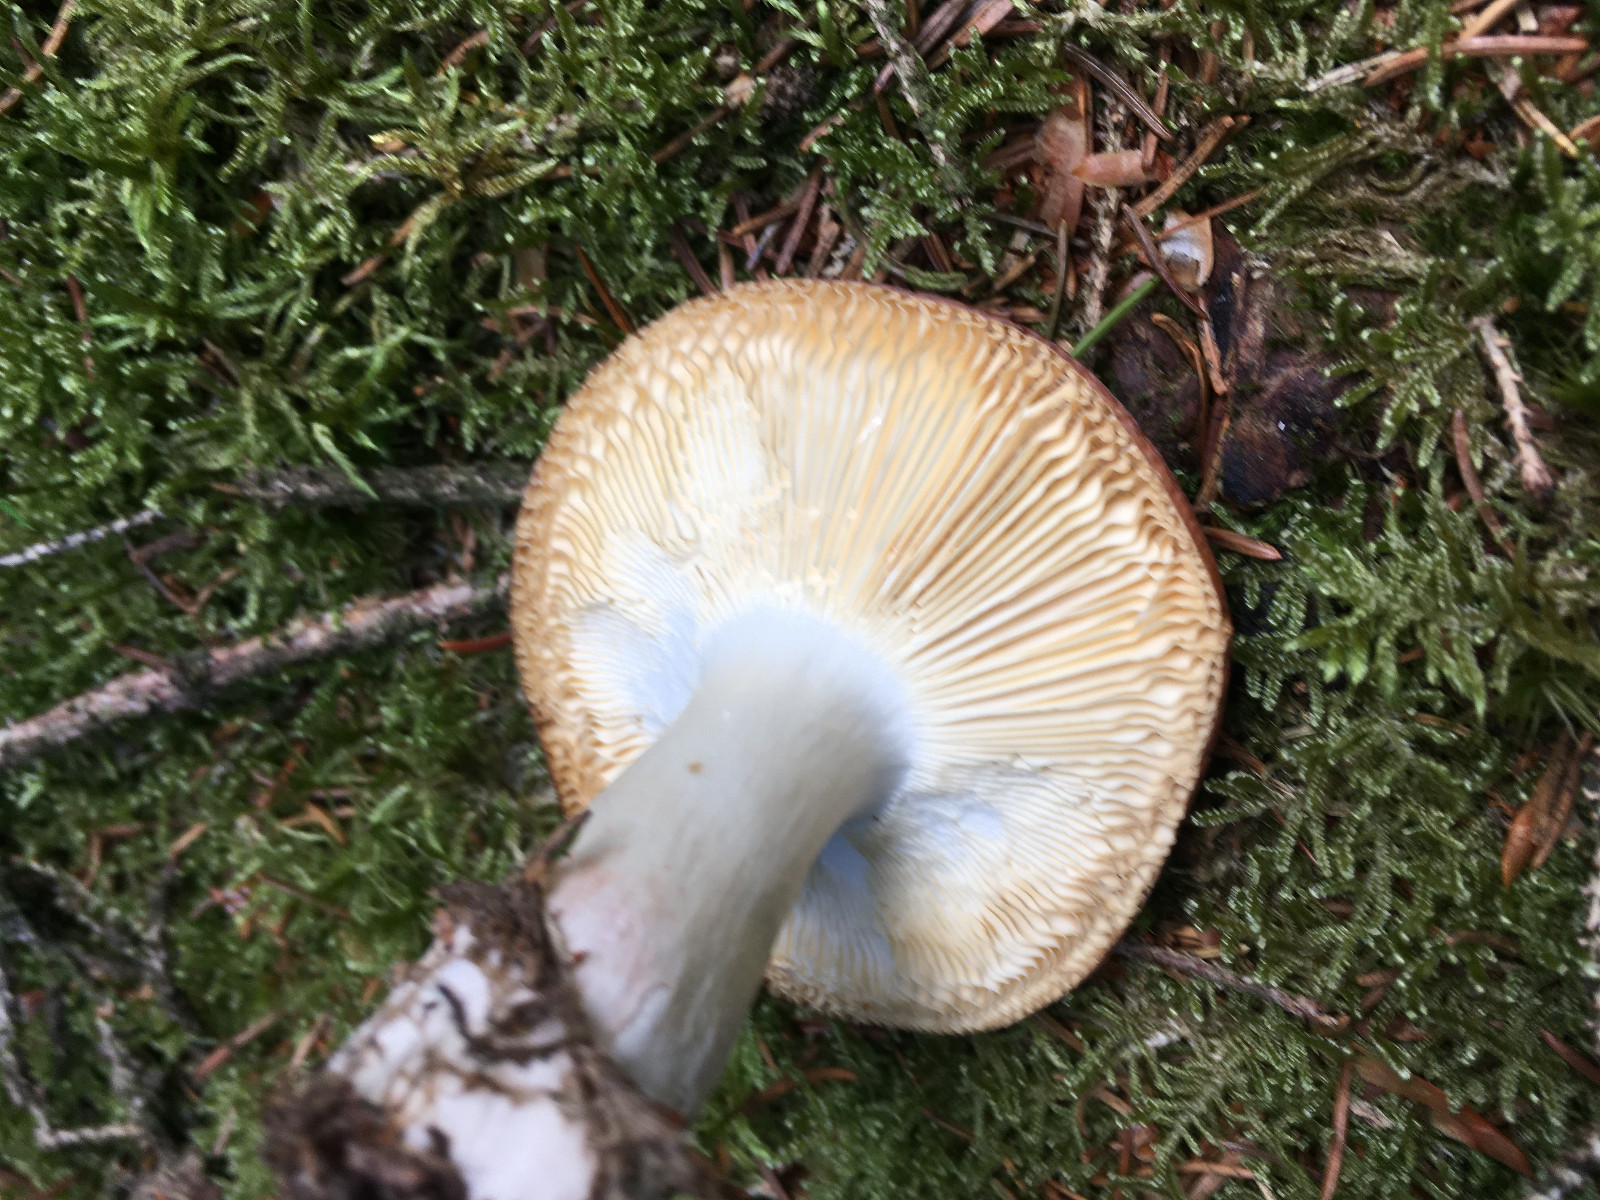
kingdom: Fungi
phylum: Basidiomycota
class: Agaricomycetes
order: Russulales
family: Russulaceae
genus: Russula
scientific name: Russula vesca
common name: spiselig skørhat
